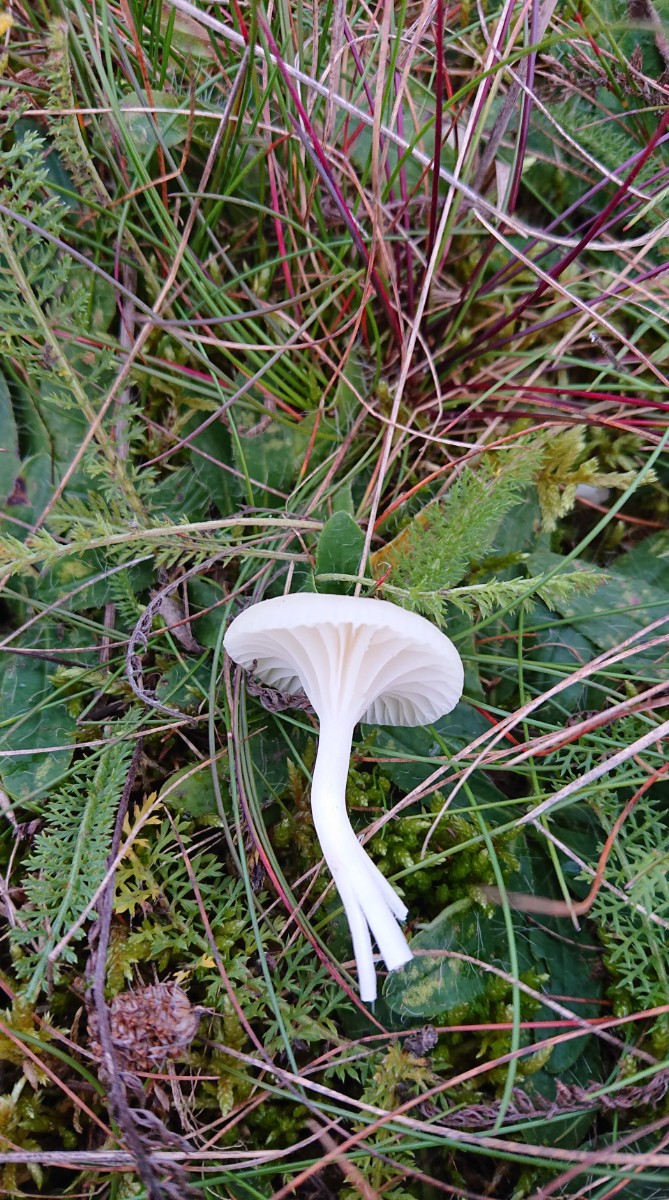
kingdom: Fungi
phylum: Basidiomycota
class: Agaricomycetes
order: Agaricales
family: Hygrophoraceae
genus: Cuphophyllus
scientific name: Cuphophyllus virgineus
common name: snehvid vokshat
